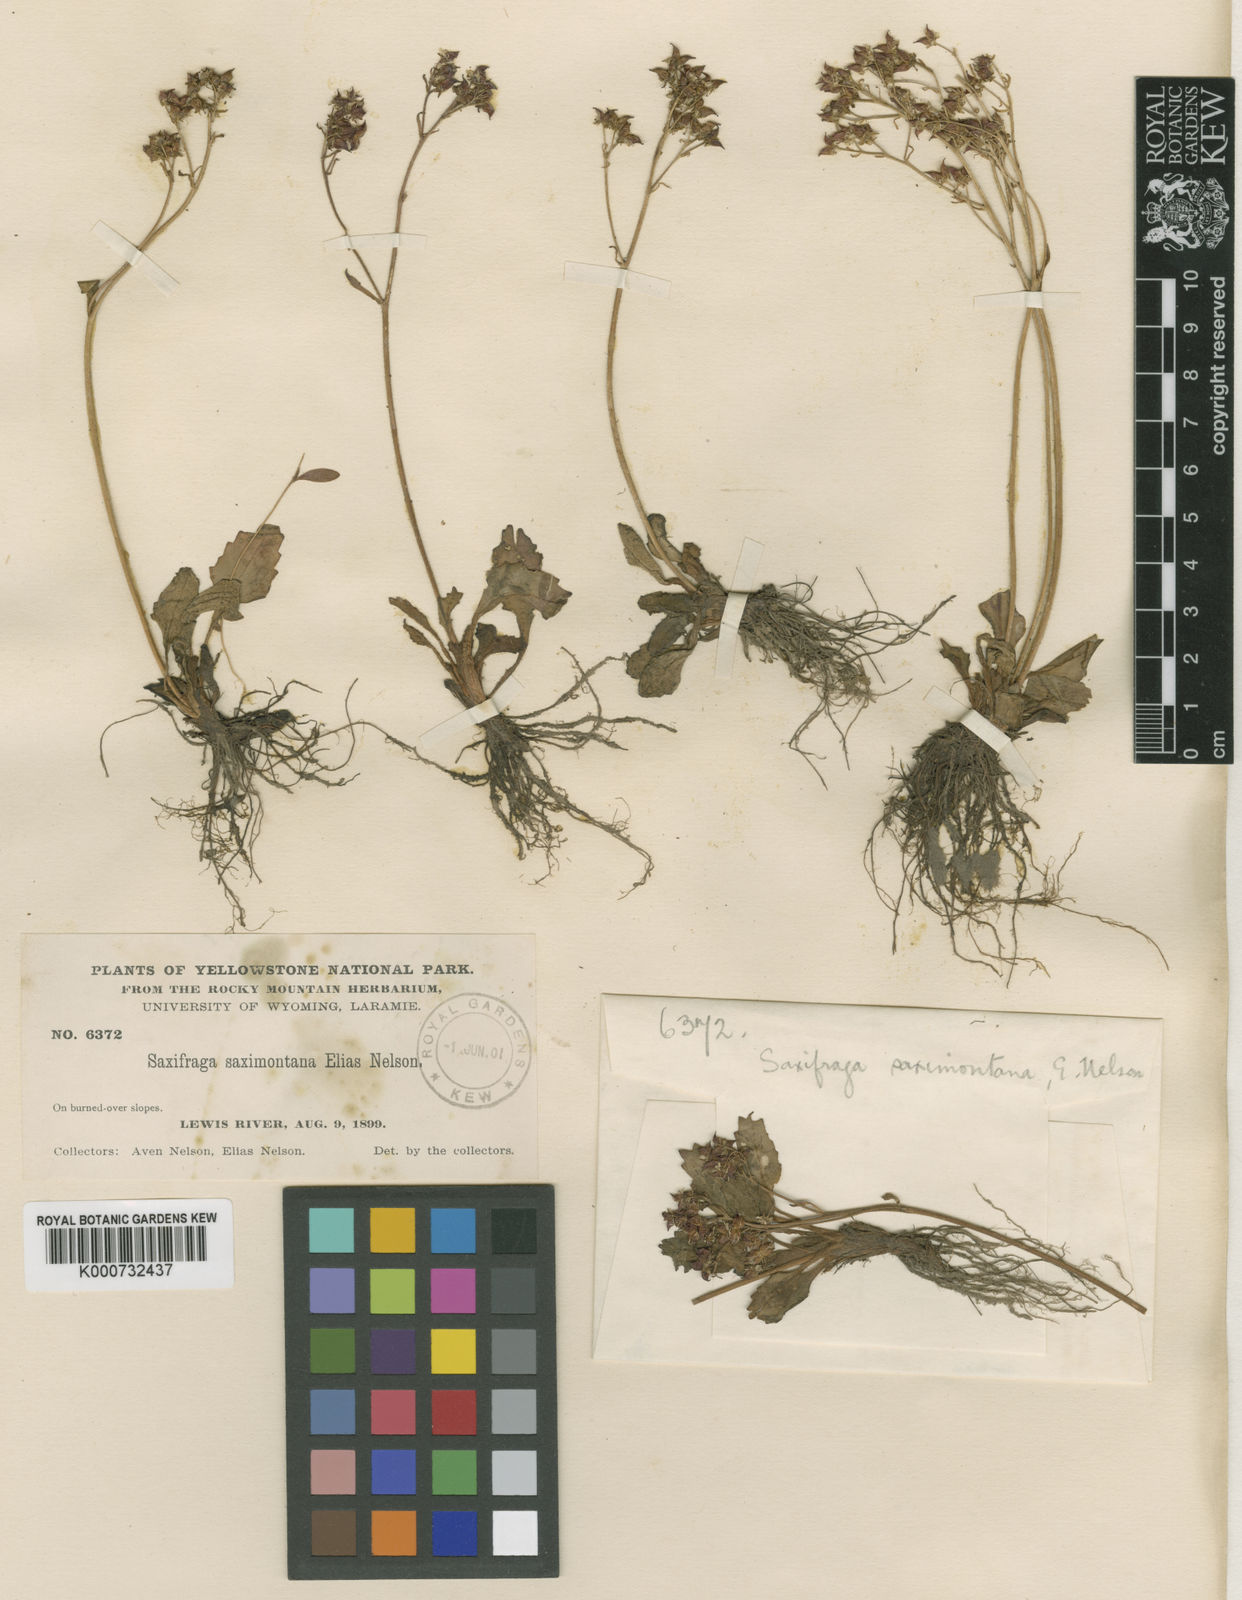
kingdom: Plantae
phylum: Tracheophyta
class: Magnoliopsida
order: Saxifragales
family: Saxifragaceae
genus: Micranthes
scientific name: Micranthes occidentalis
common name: Alberta saxifrage
